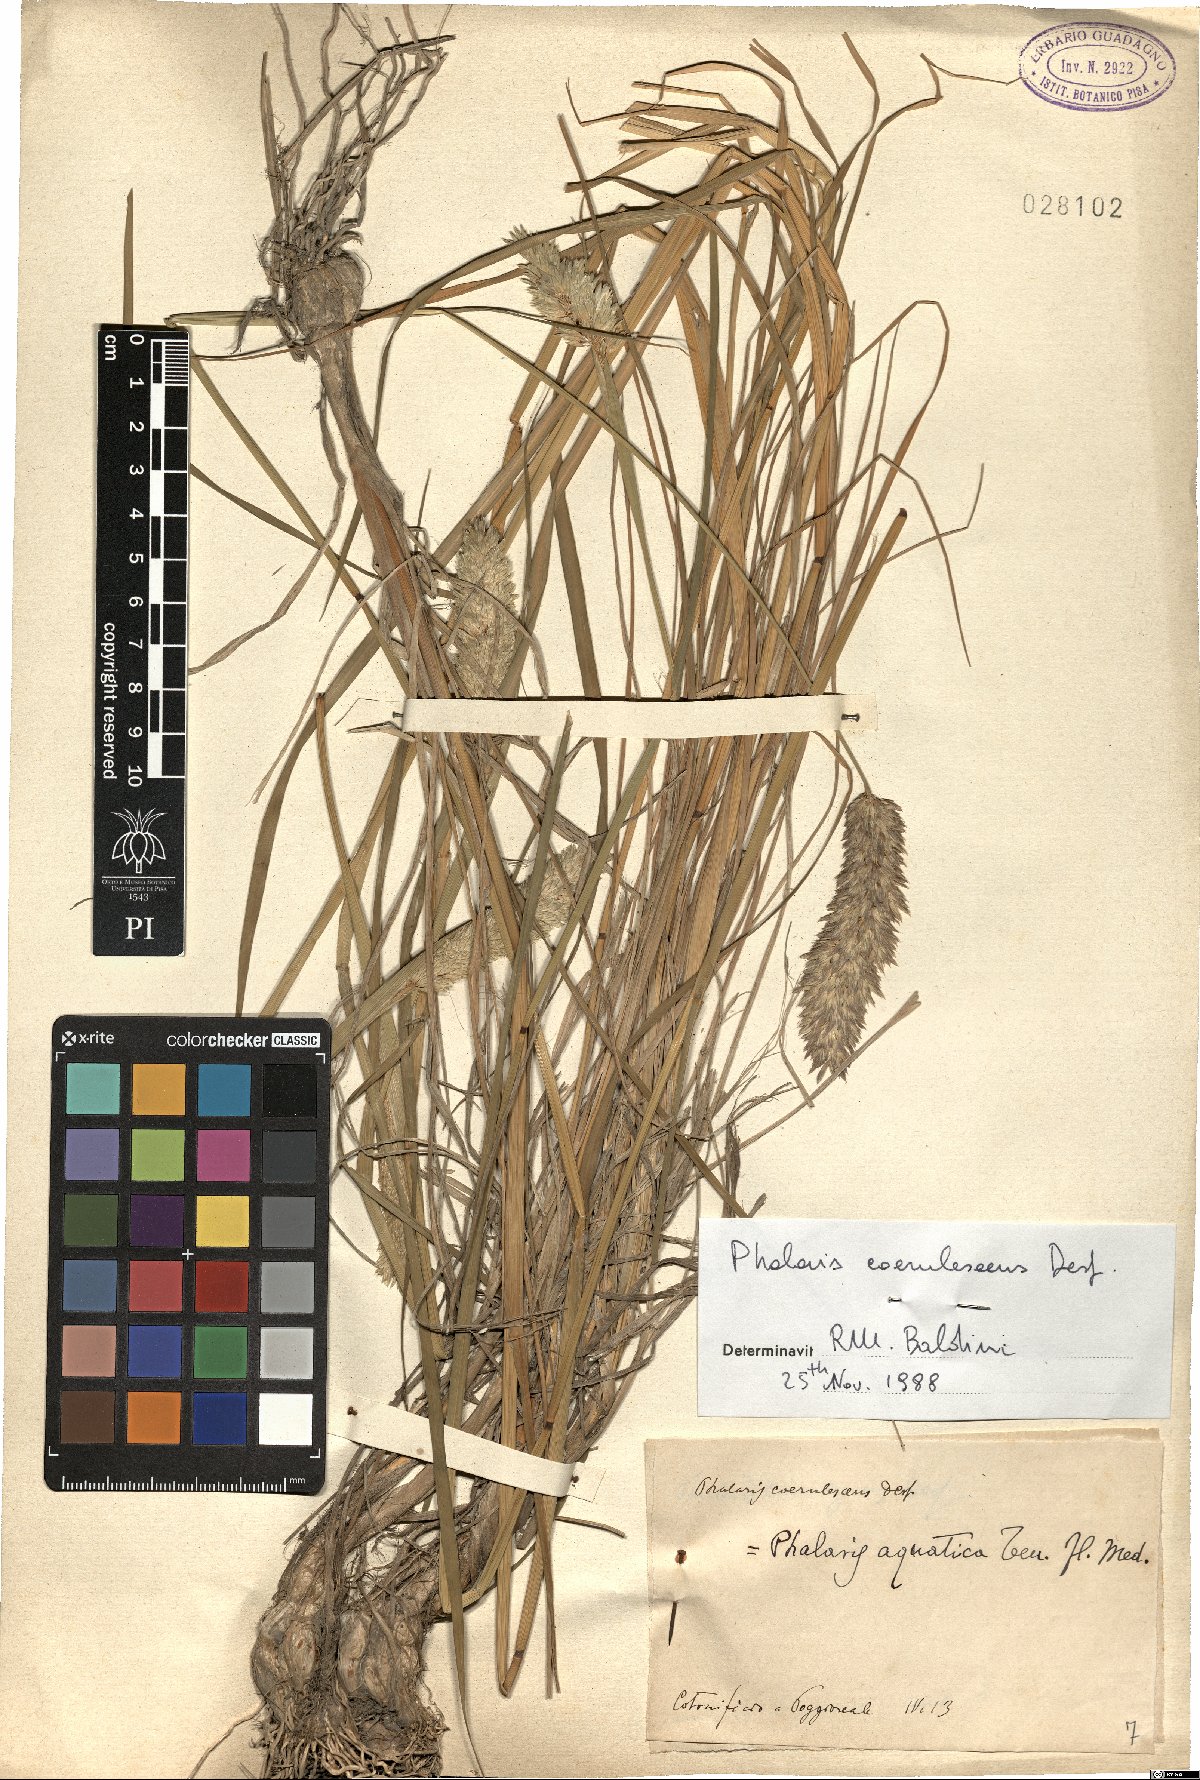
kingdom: Plantae
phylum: Tracheophyta
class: Liliopsida
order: Poales
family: Poaceae
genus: Phalaris
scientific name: Phalaris coerulescens
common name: Sunolgrass
